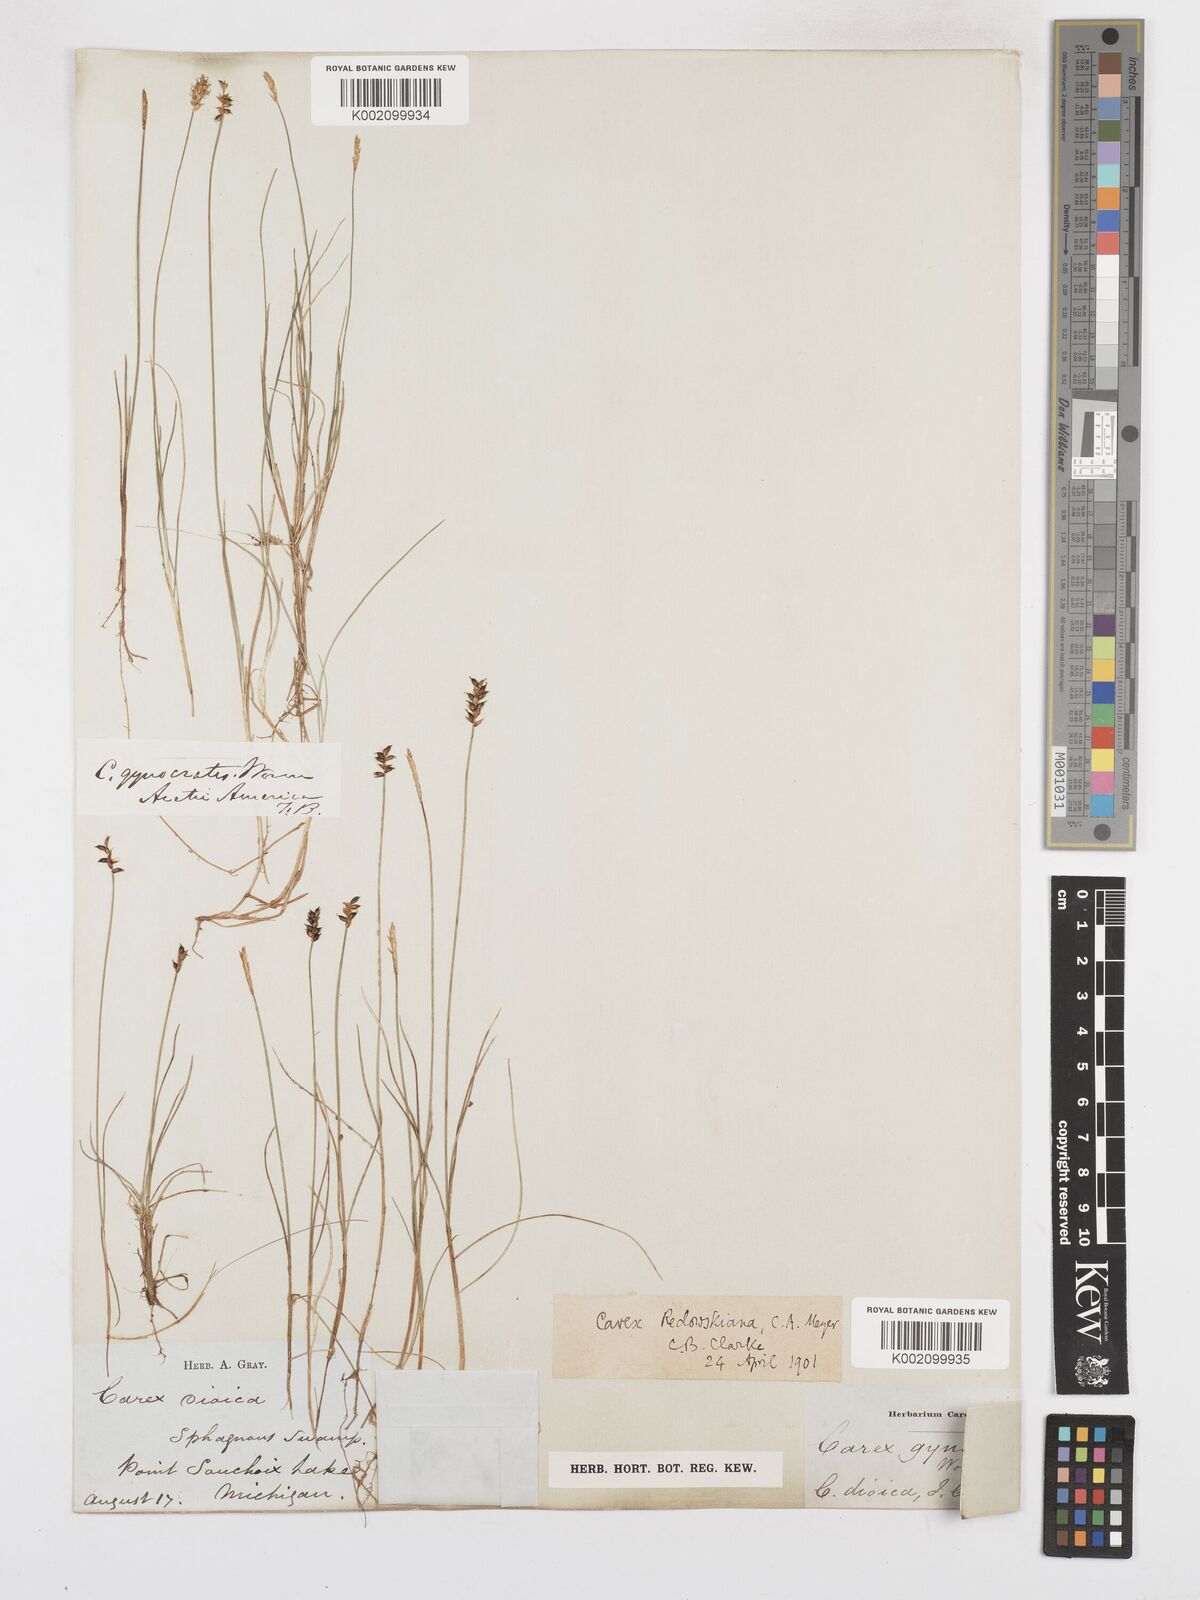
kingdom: Plantae
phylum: Tracheophyta
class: Liliopsida
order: Poales
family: Cyperaceae
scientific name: Cyperaceae
